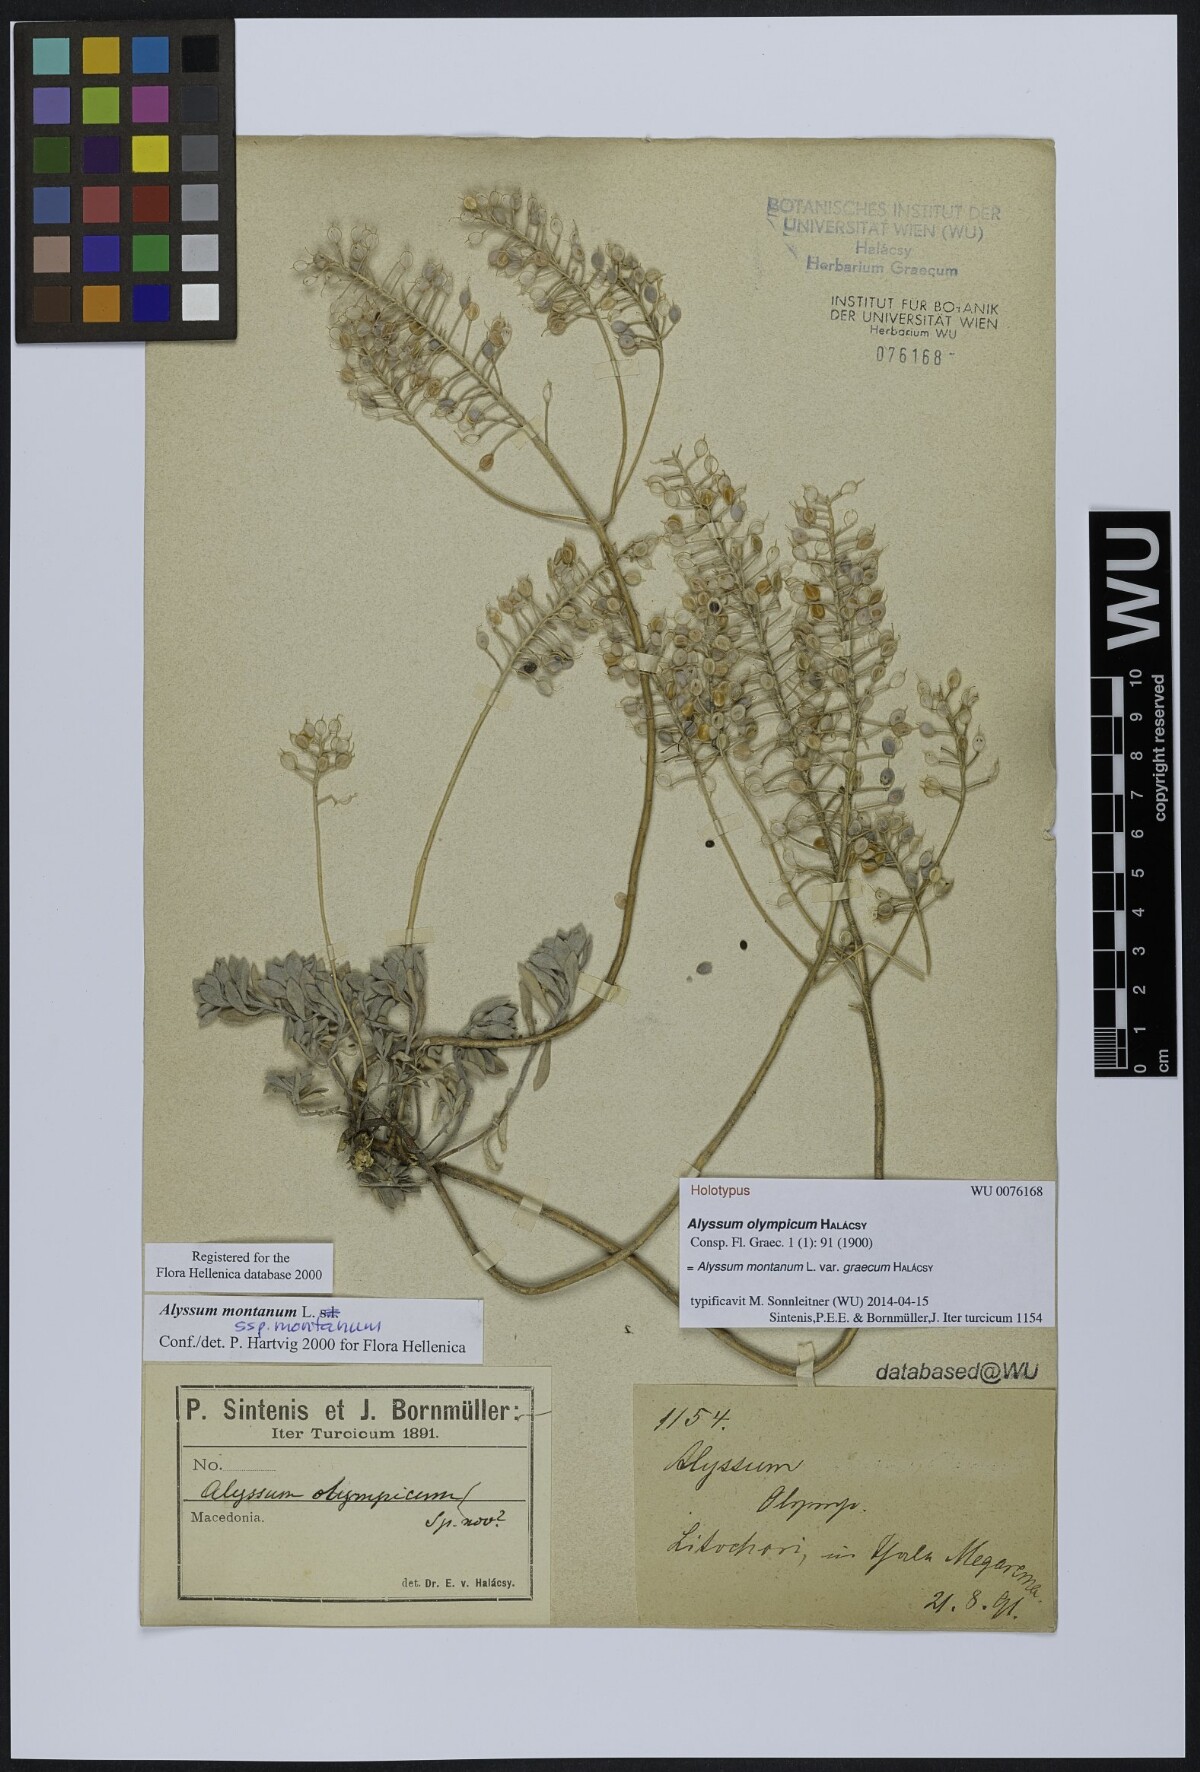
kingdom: Plantae
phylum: Tracheophyta
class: Magnoliopsida
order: Brassicales
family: Brassicaceae
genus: Alyssum
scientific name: Alyssum montanum
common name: Mountain alison
